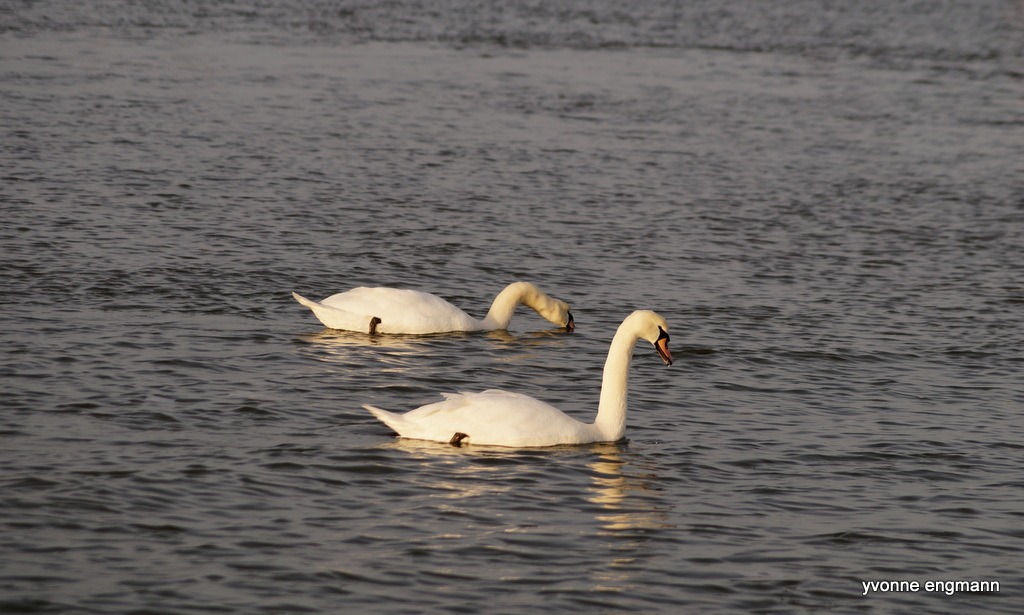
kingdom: Animalia
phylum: Chordata
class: Aves
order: Anseriformes
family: Anatidae
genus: Cygnus
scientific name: Cygnus olor
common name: Knopsvane
